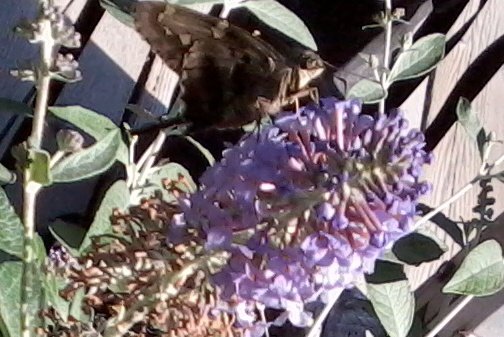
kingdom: Animalia
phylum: Arthropoda
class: Insecta
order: Lepidoptera
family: Hesperiidae
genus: Urbanus
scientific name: Urbanus proteus
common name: Long-tailed Skipper
